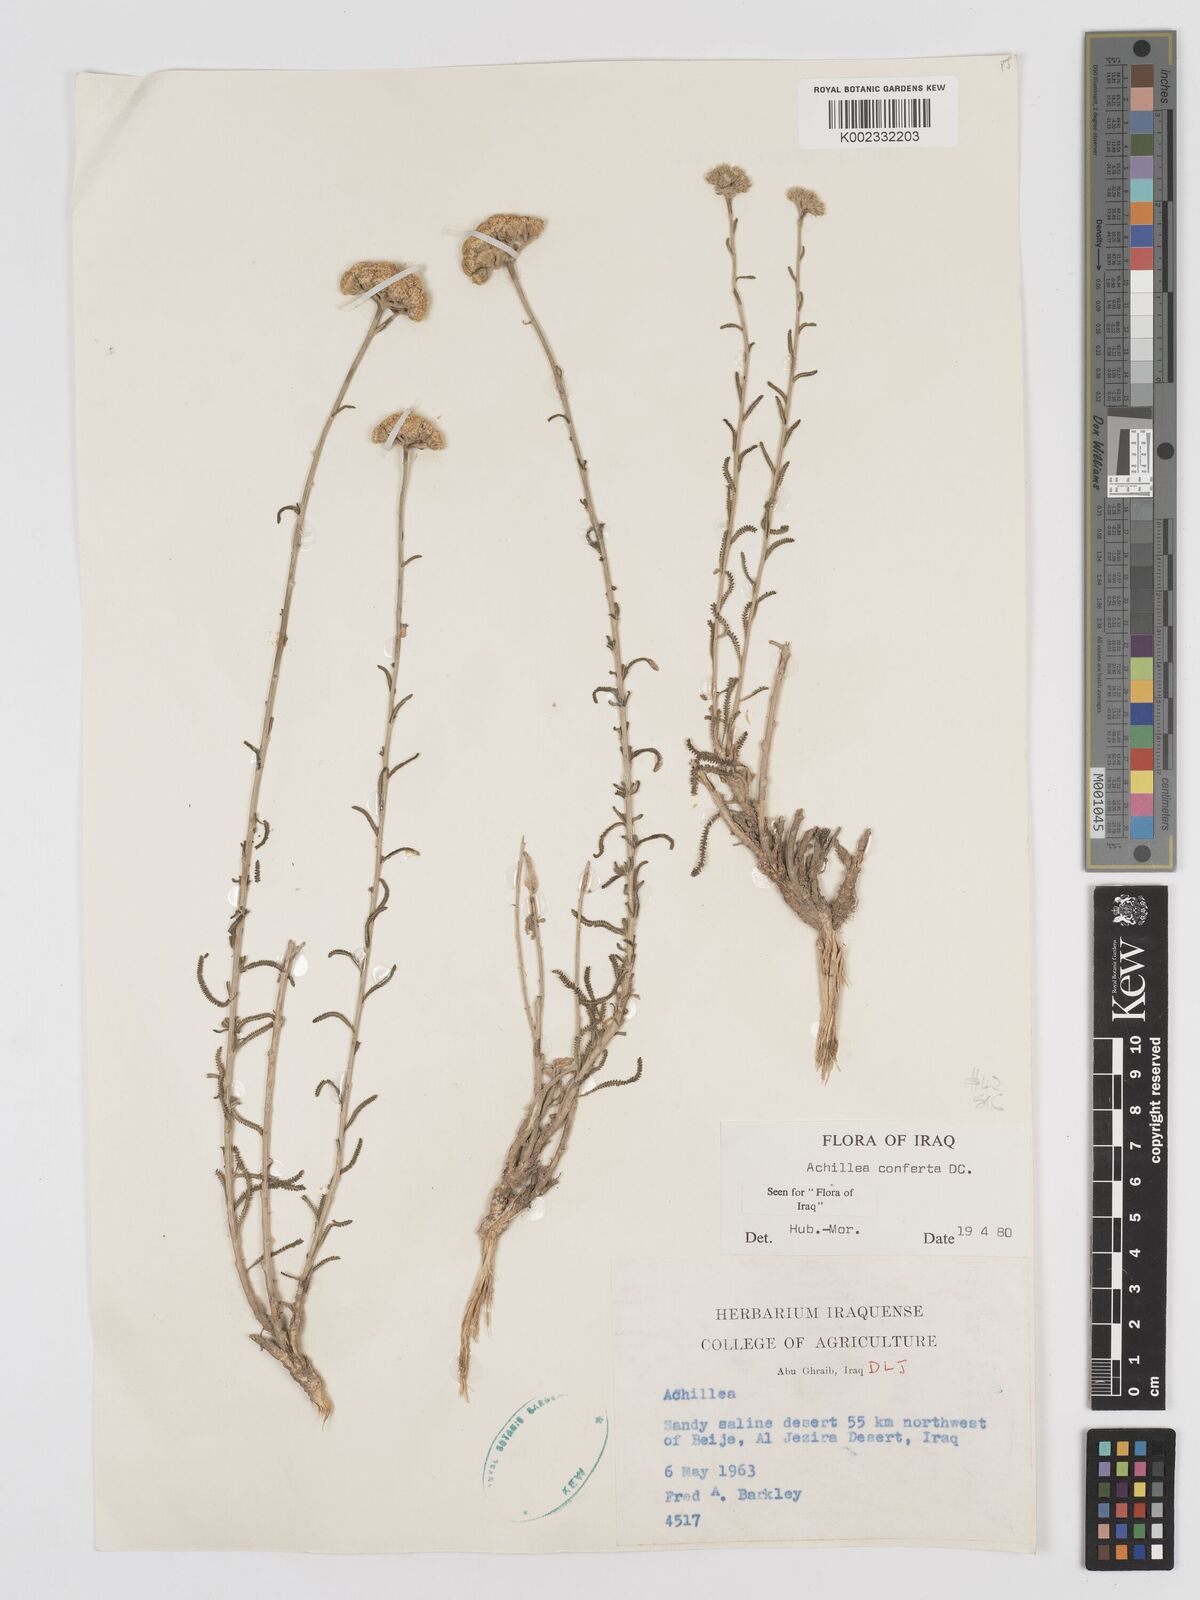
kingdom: Plantae
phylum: Tracheophyta
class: Magnoliopsida
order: Asterales
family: Asteraceae
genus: Achillea
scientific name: Achillea conferta
